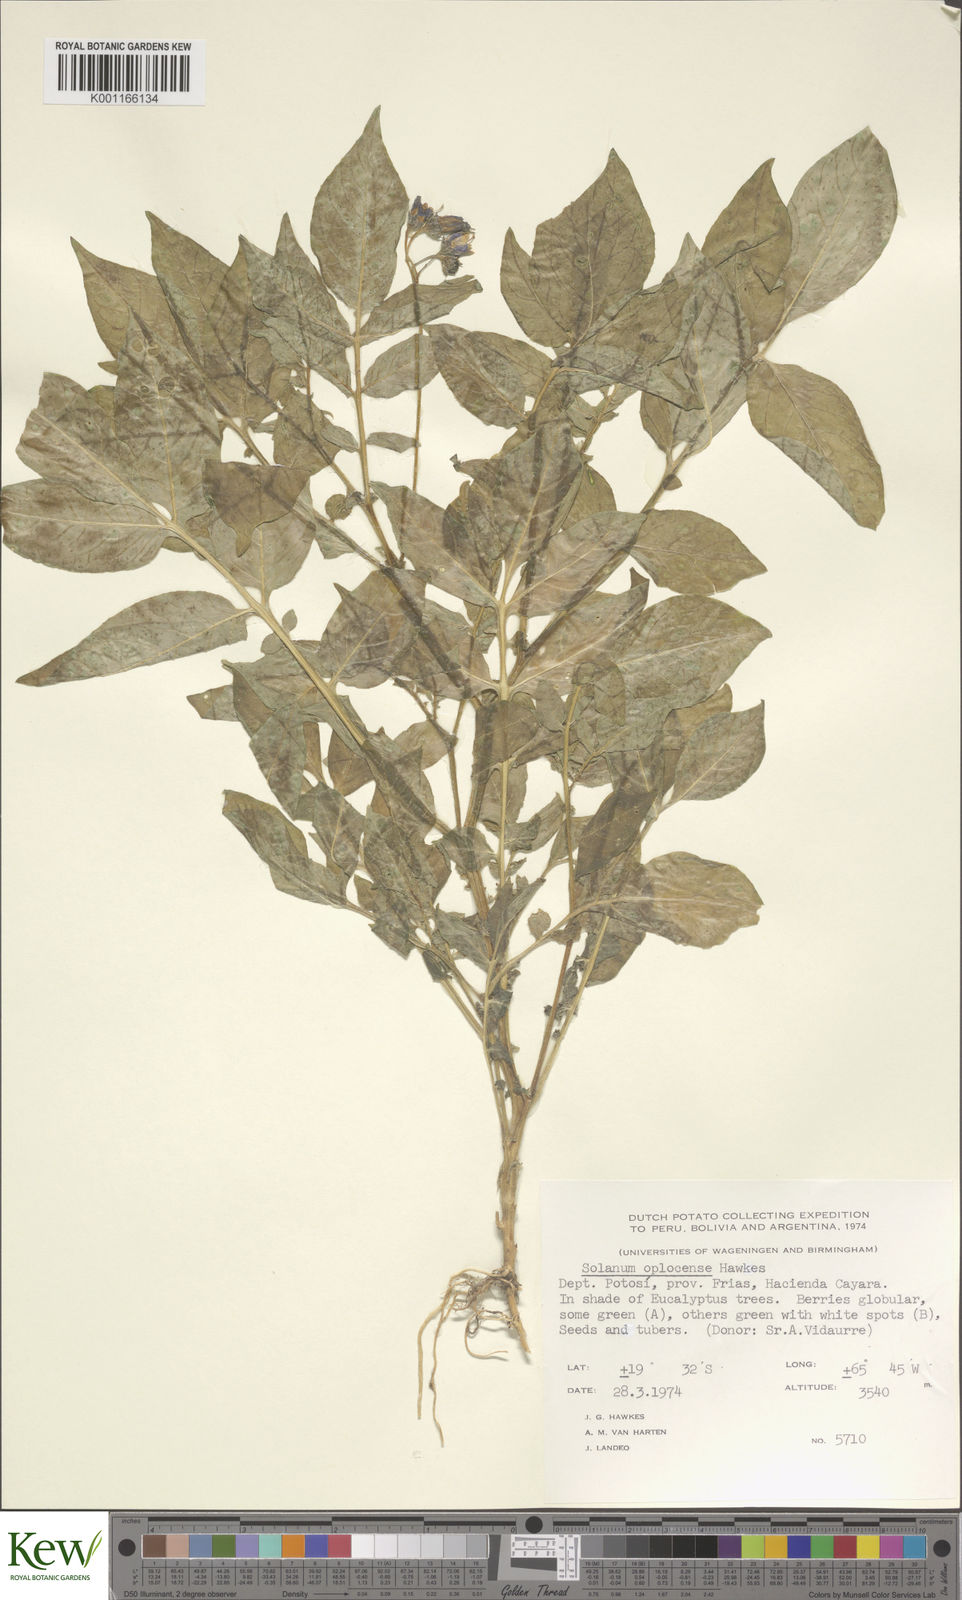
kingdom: Plantae
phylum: Tracheophyta
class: Magnoliopsida
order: Solanales
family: Solanaceae
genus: Solanum
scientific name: Solanum brevicaule
